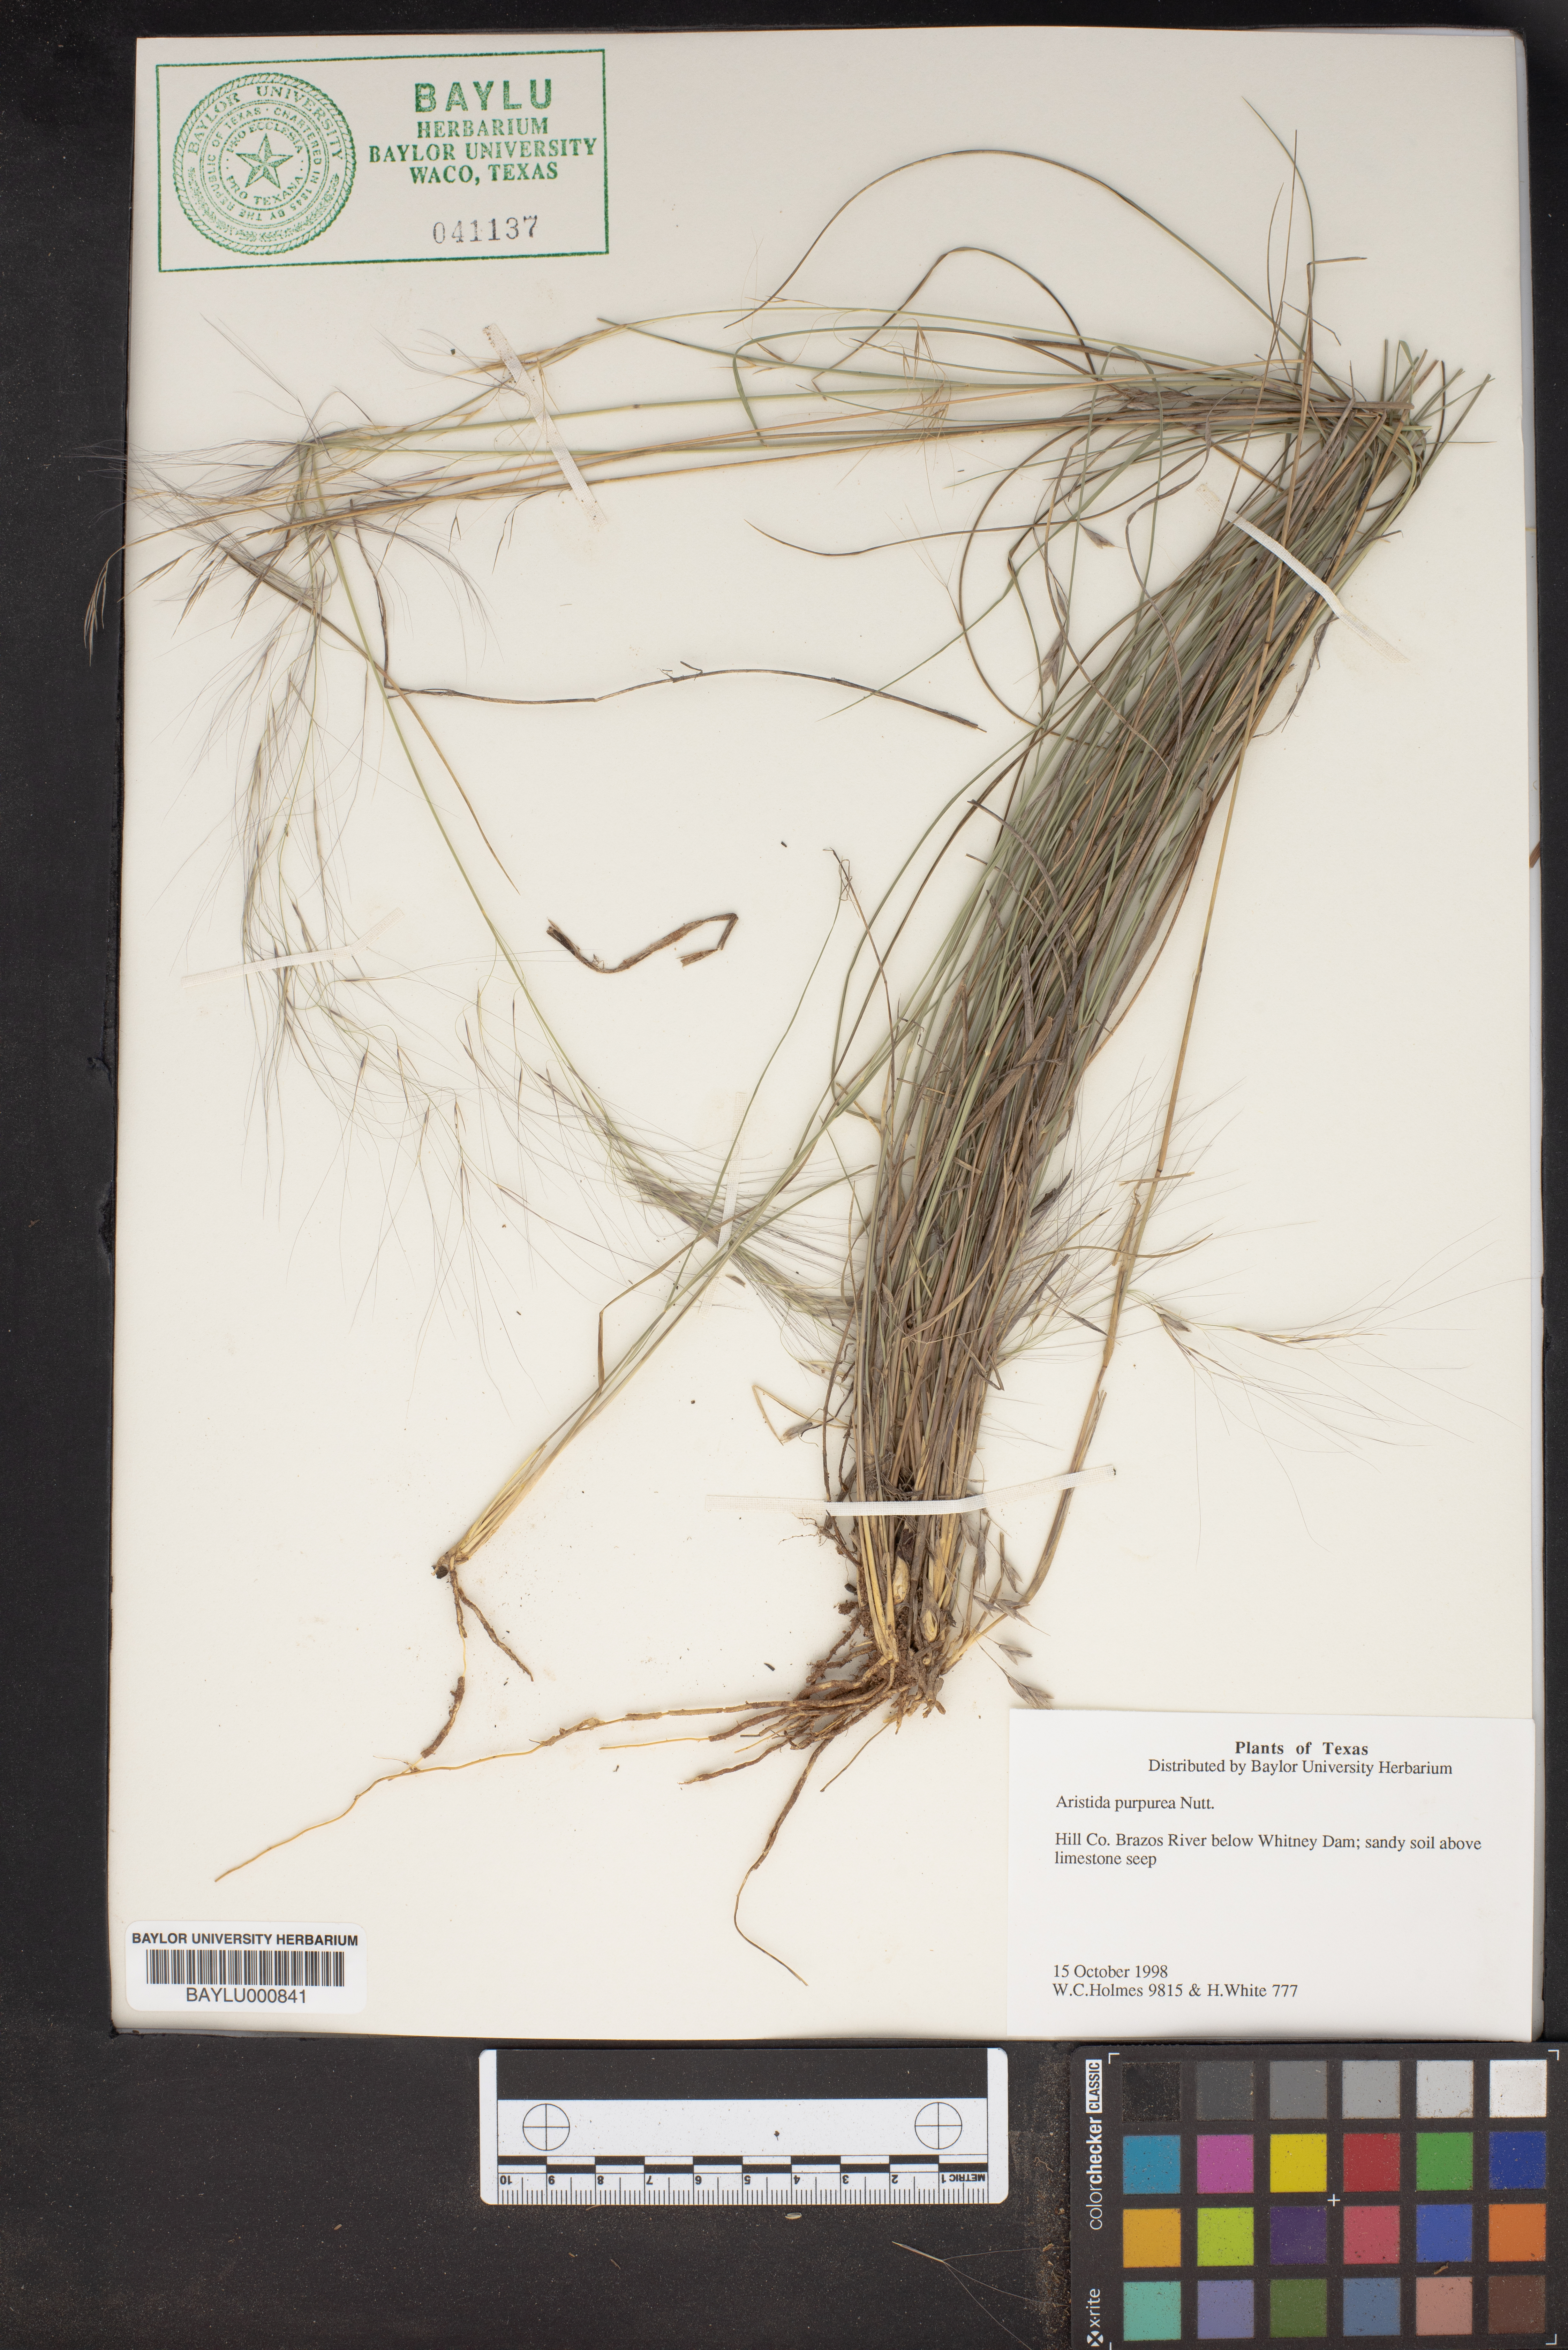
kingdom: Plantae
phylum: Tracheophyta
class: Liliopsida
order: Poales
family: Poaceae
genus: Aristida
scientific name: Aristida purpurea
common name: Purple threeawn
